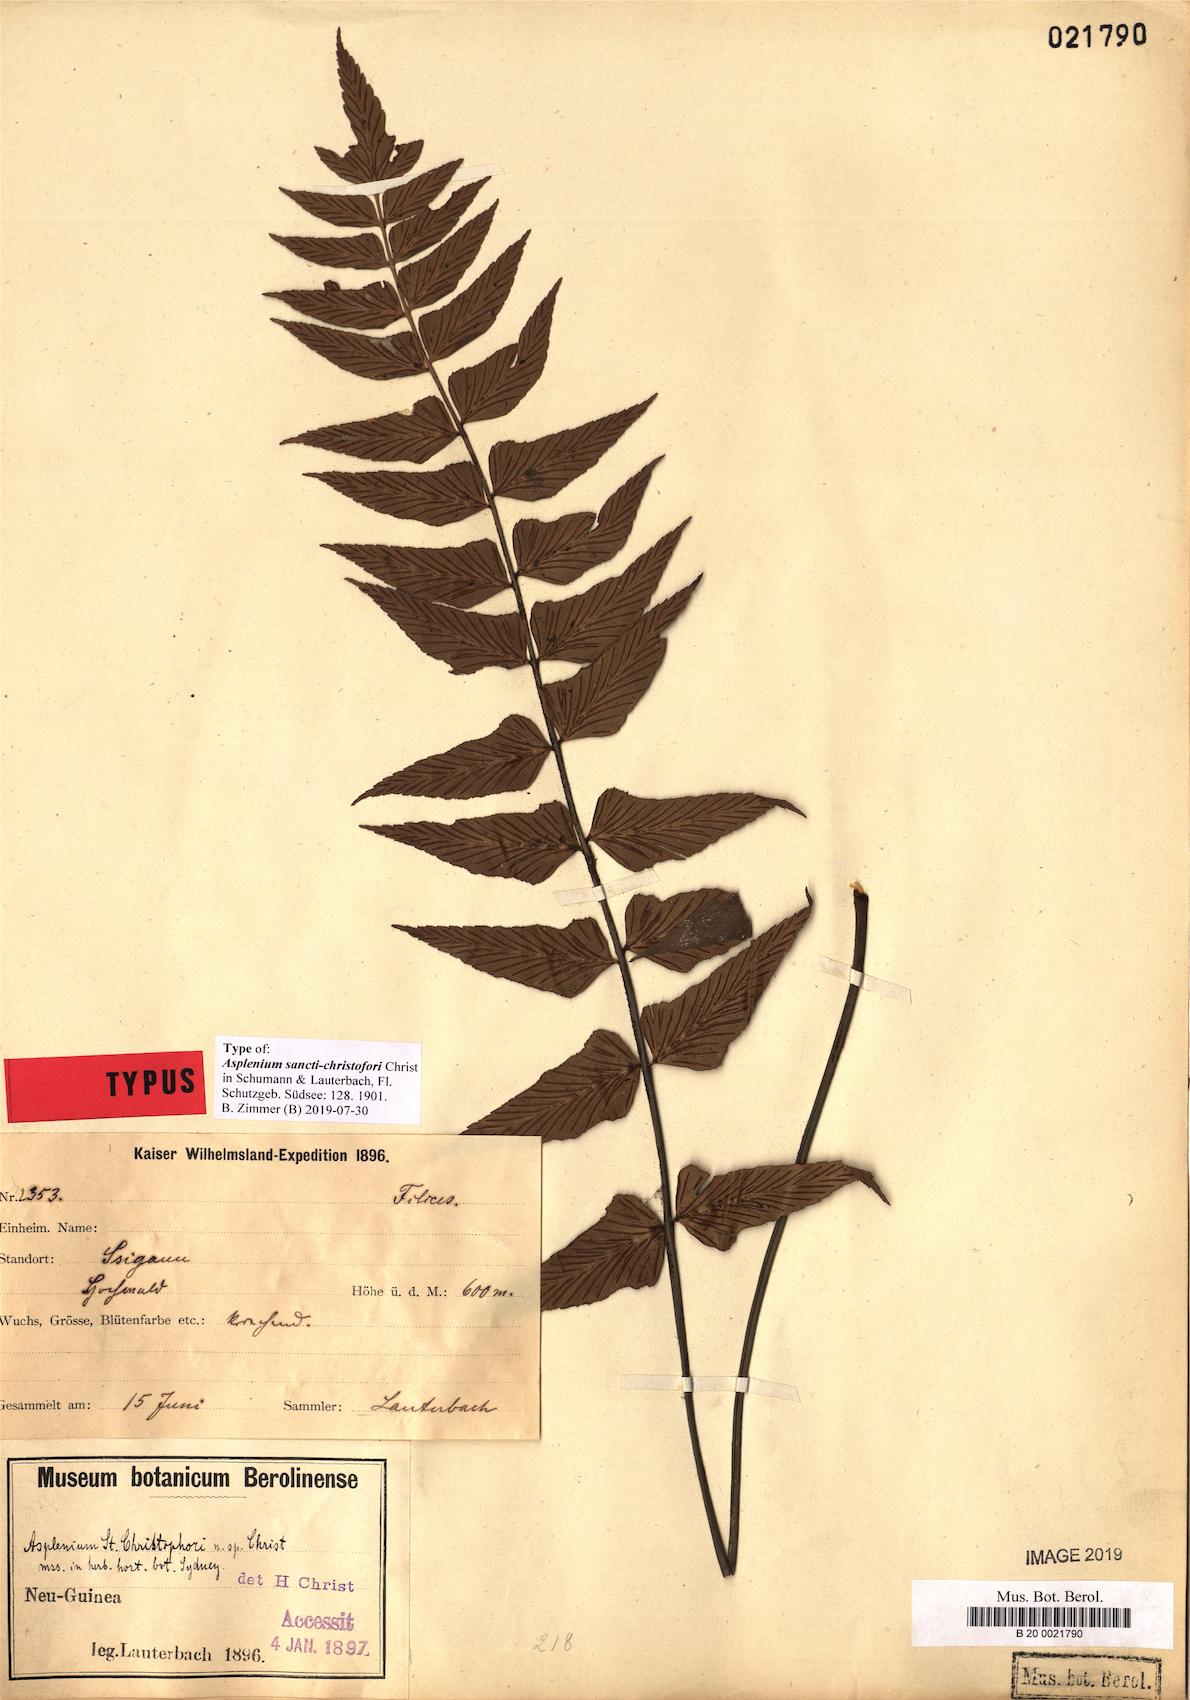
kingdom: Plantae
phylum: Tracheophyta
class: Polypodiopsida
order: Polypodiales
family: Aspleniaceae
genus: Asplenium
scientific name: Asplenium sancti-christofori
